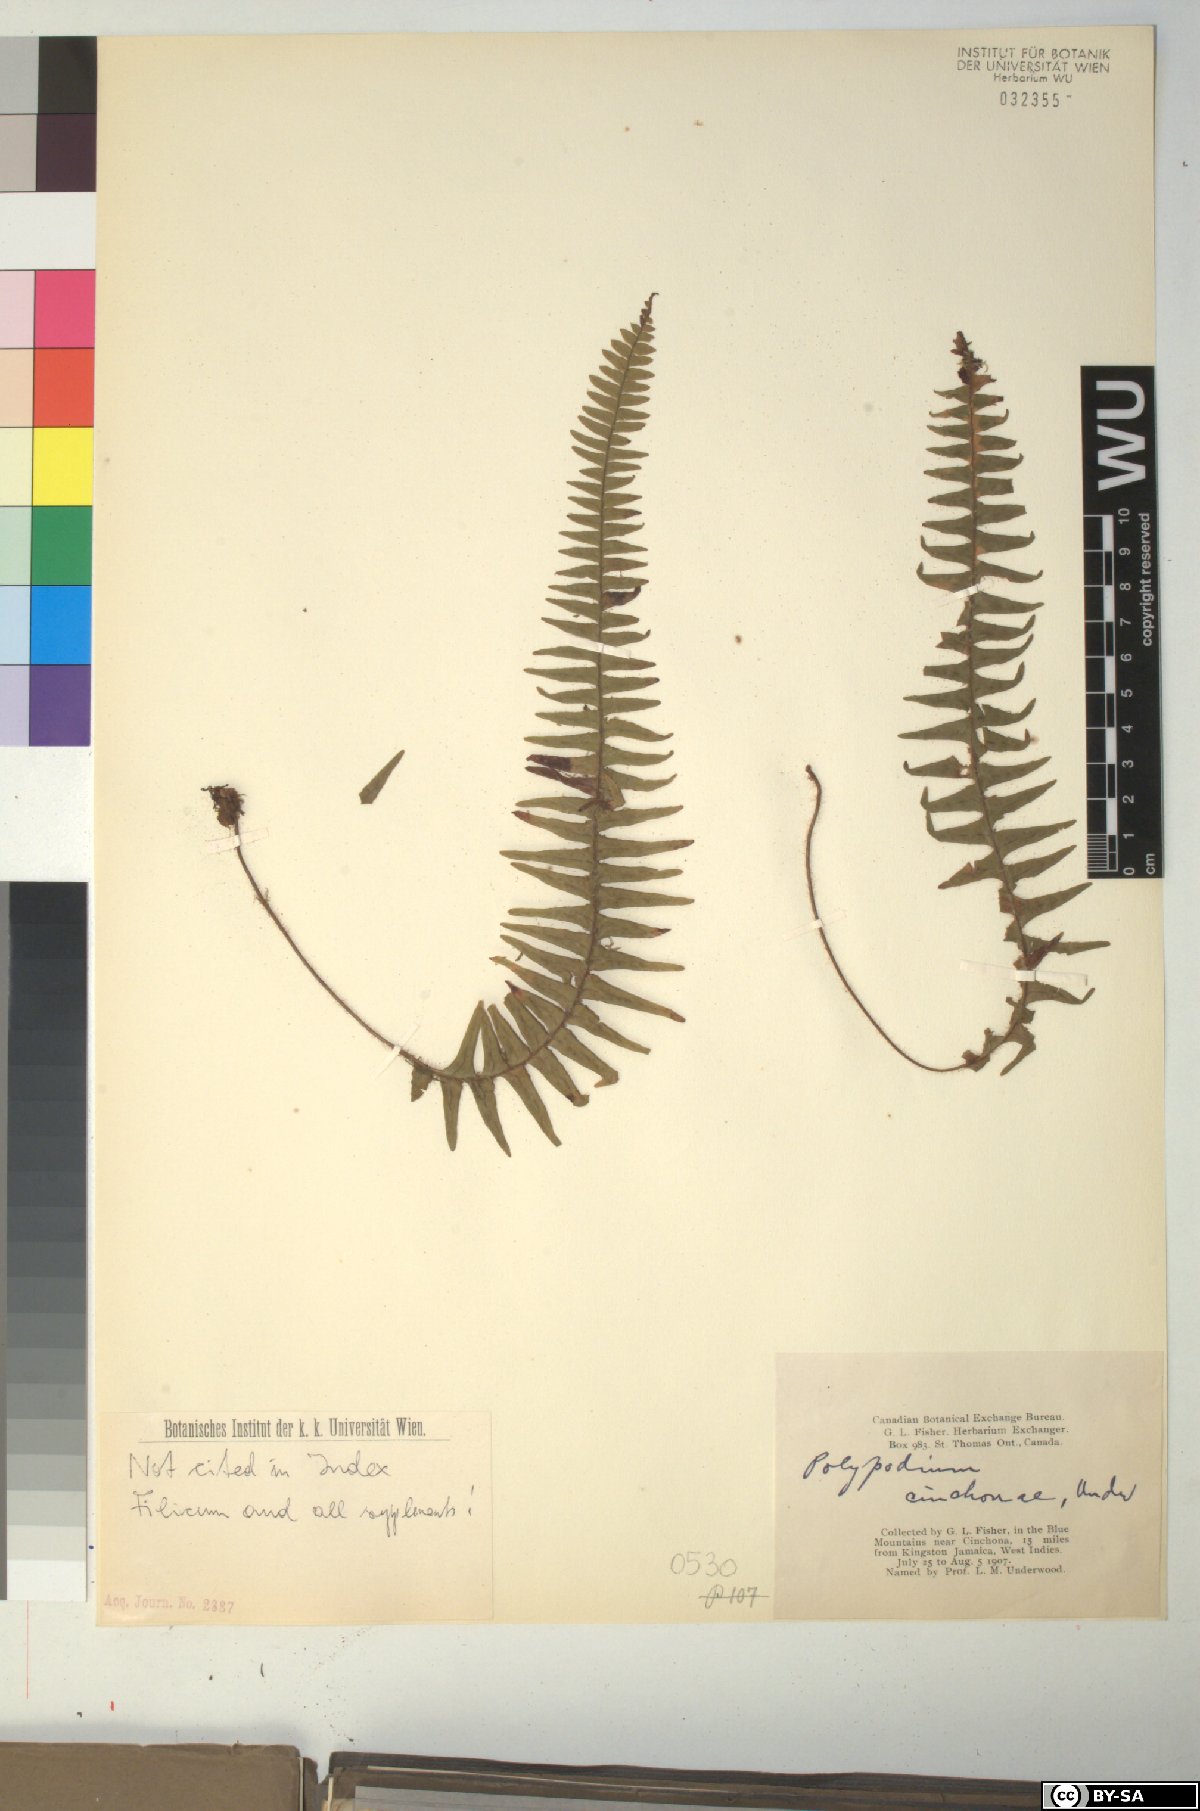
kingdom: Plantae
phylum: Tracheophyta
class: Polypodiopsida
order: Polypodiales
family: Polypodiaceae
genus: Polypodium
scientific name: Polypodium
